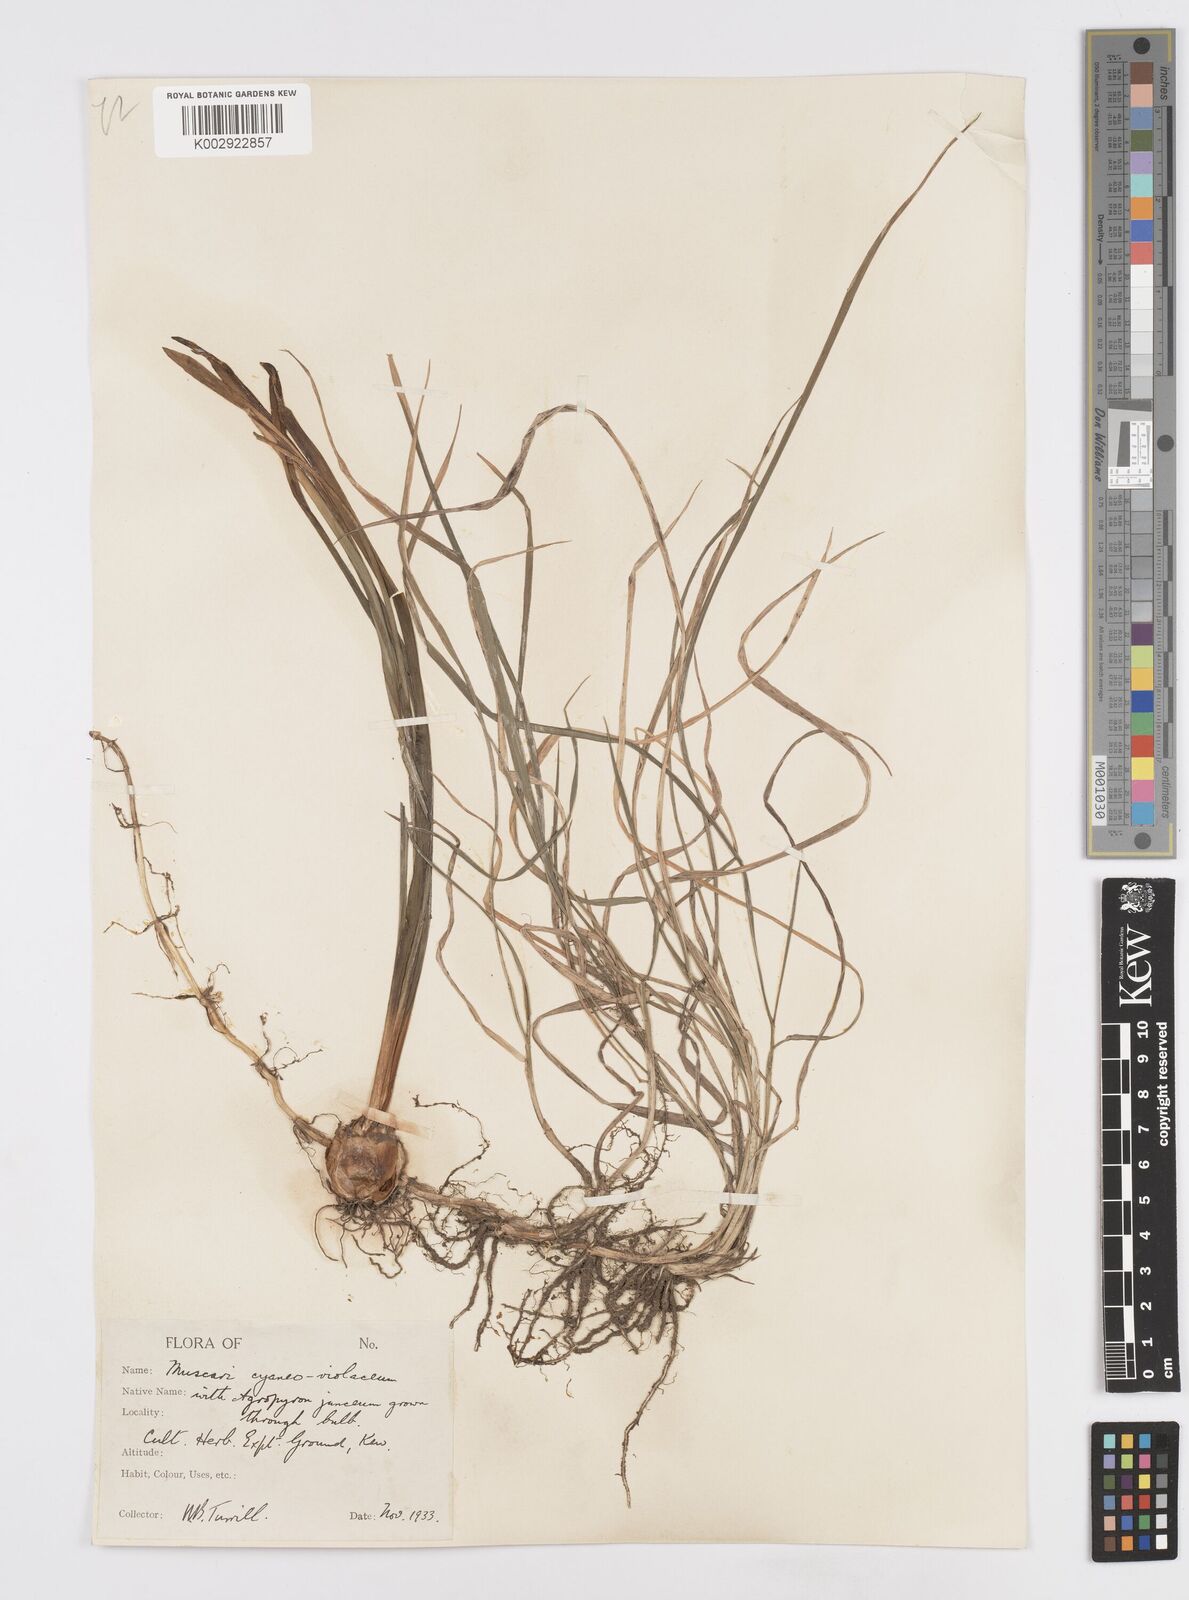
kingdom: Plantae
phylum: Tracheophyta
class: Liliopsida
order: Asparagales
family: Asparagaceae
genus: Muscari
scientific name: Muscari armeniacum
